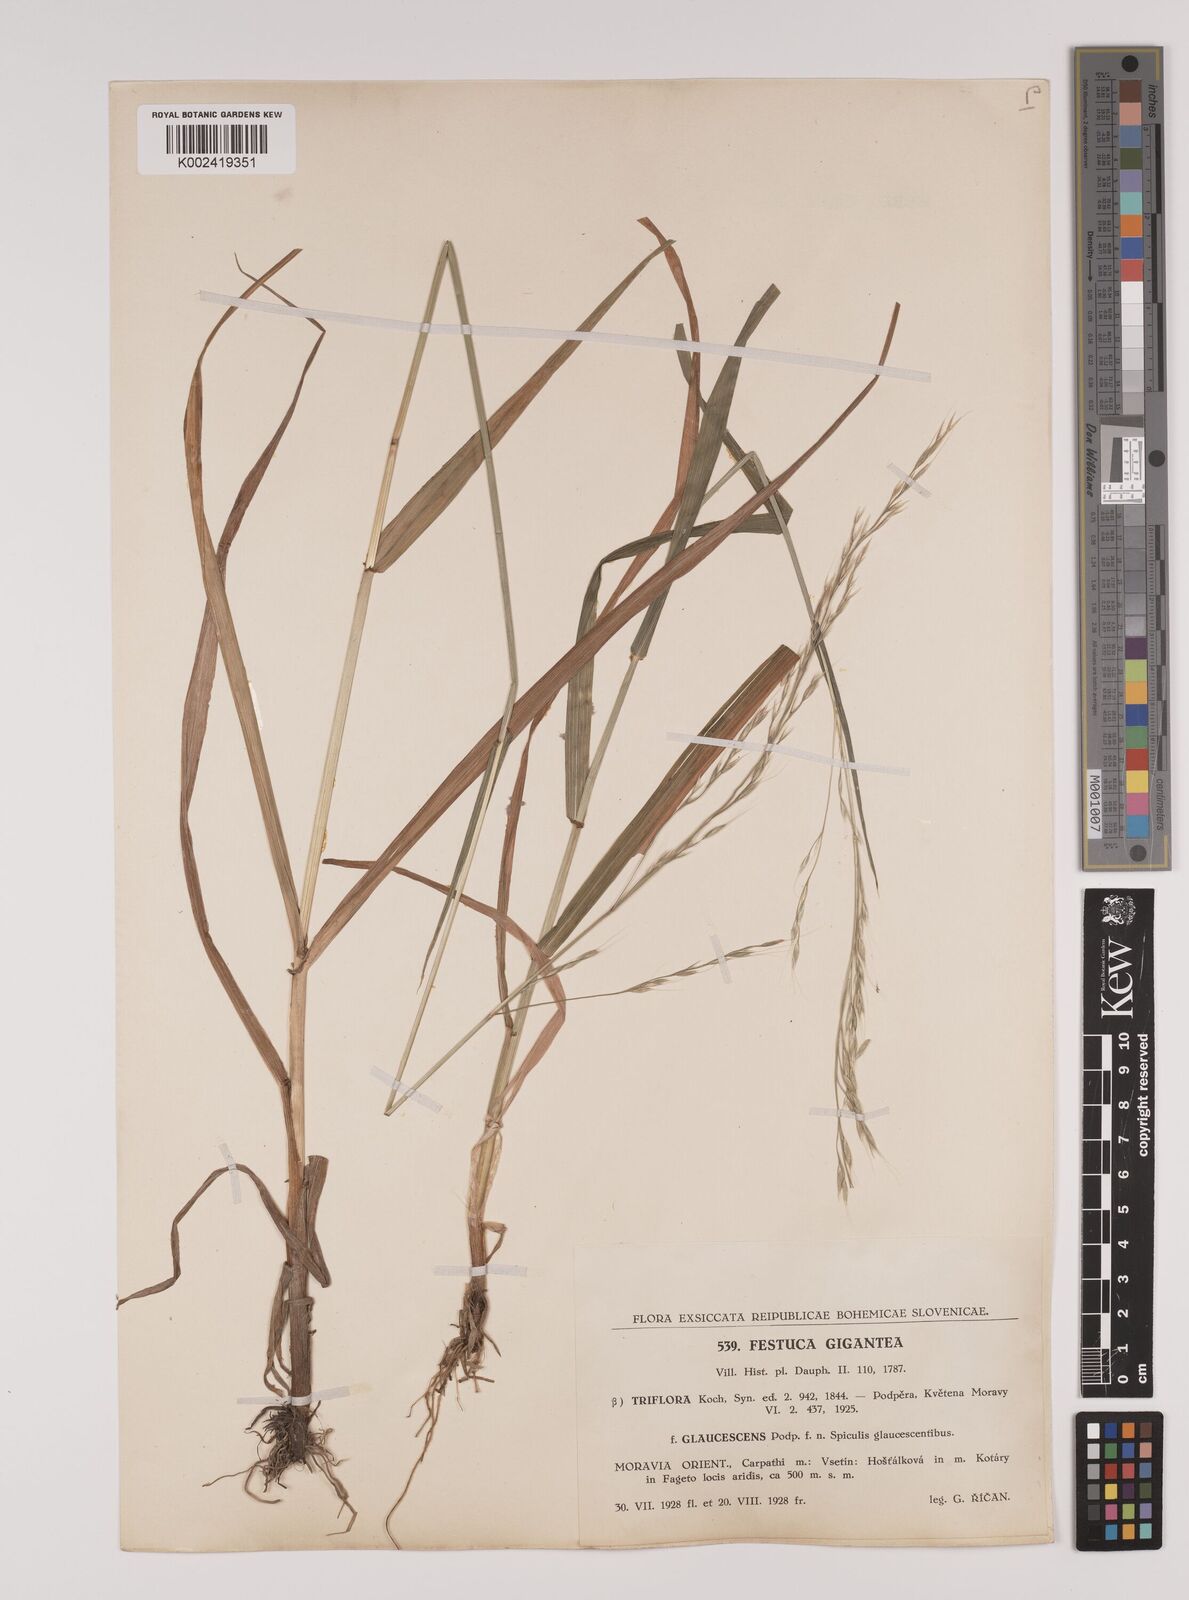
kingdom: Plantae
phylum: Tracheophyta
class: Liliopsida
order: Poales
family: Poaceae
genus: Lolium
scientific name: Lolium giganteum
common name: Giant fescue
